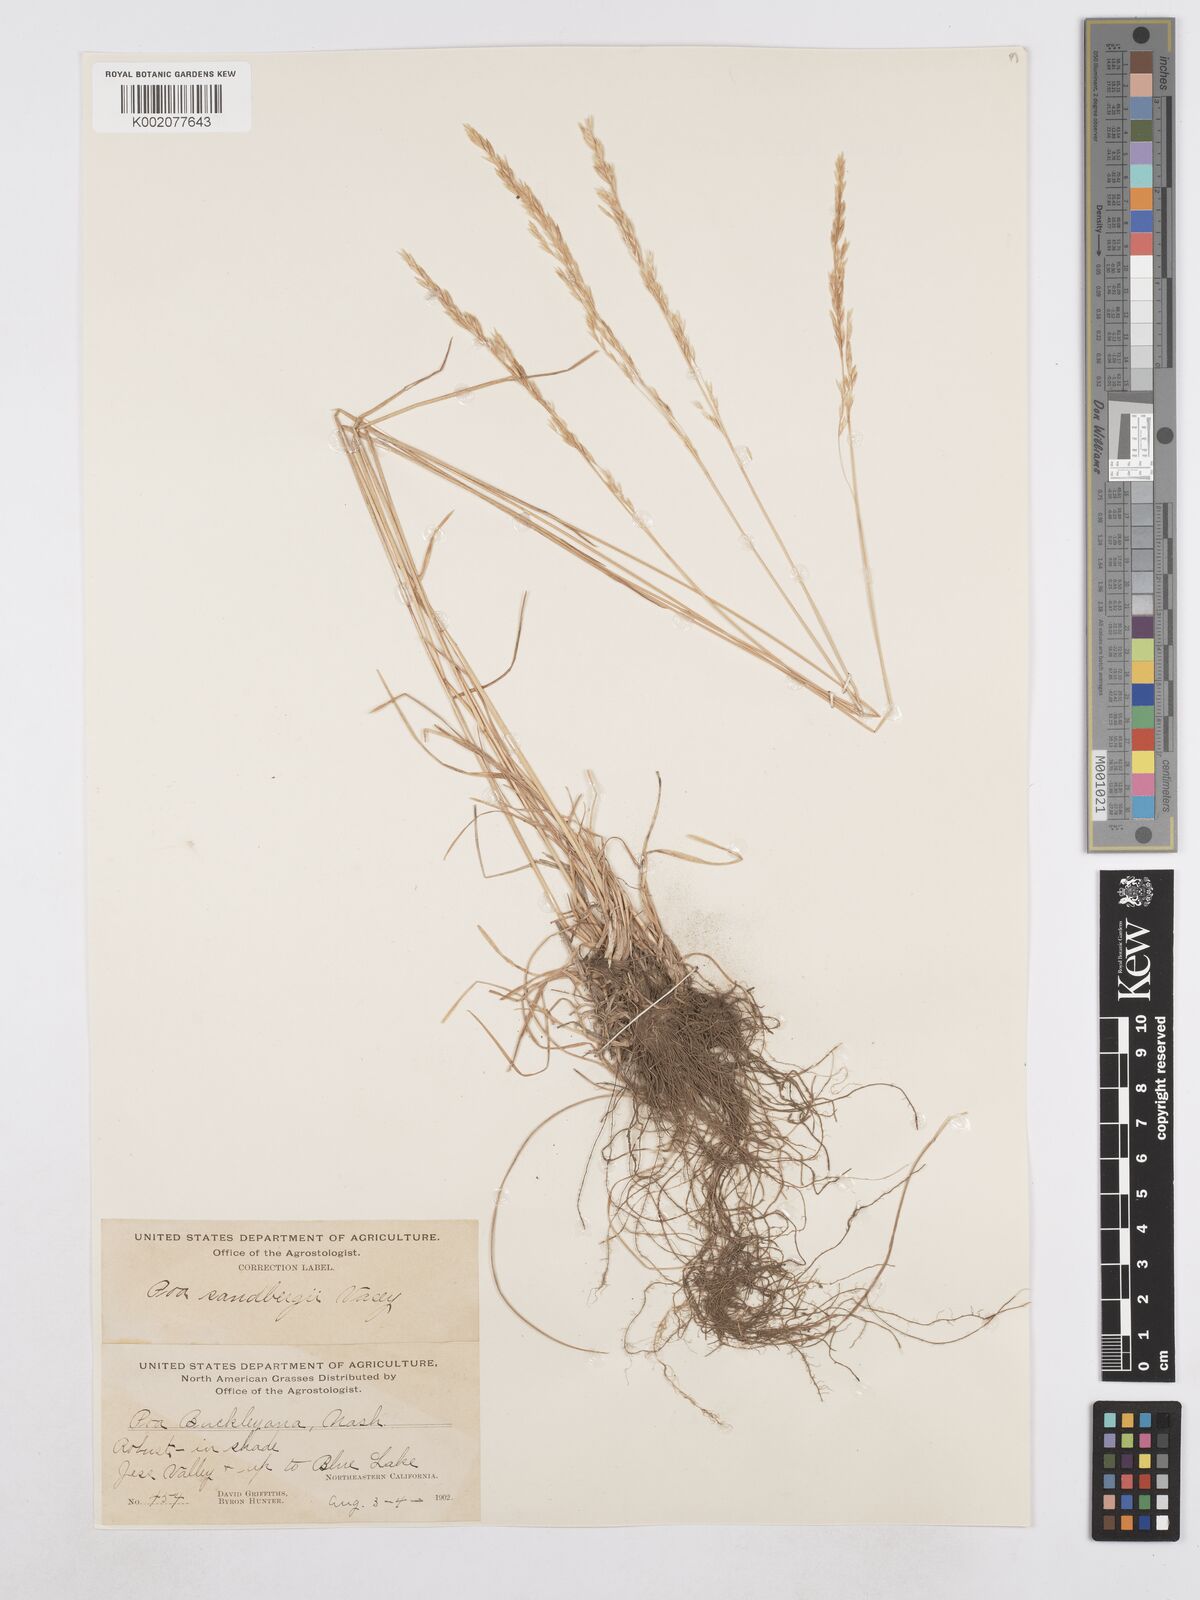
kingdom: Plantae
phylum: Tracheophyta
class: Liliopsida
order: Poales
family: Poaceae
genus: Poa
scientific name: Poa secunda
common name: Sandberg bluegrass
